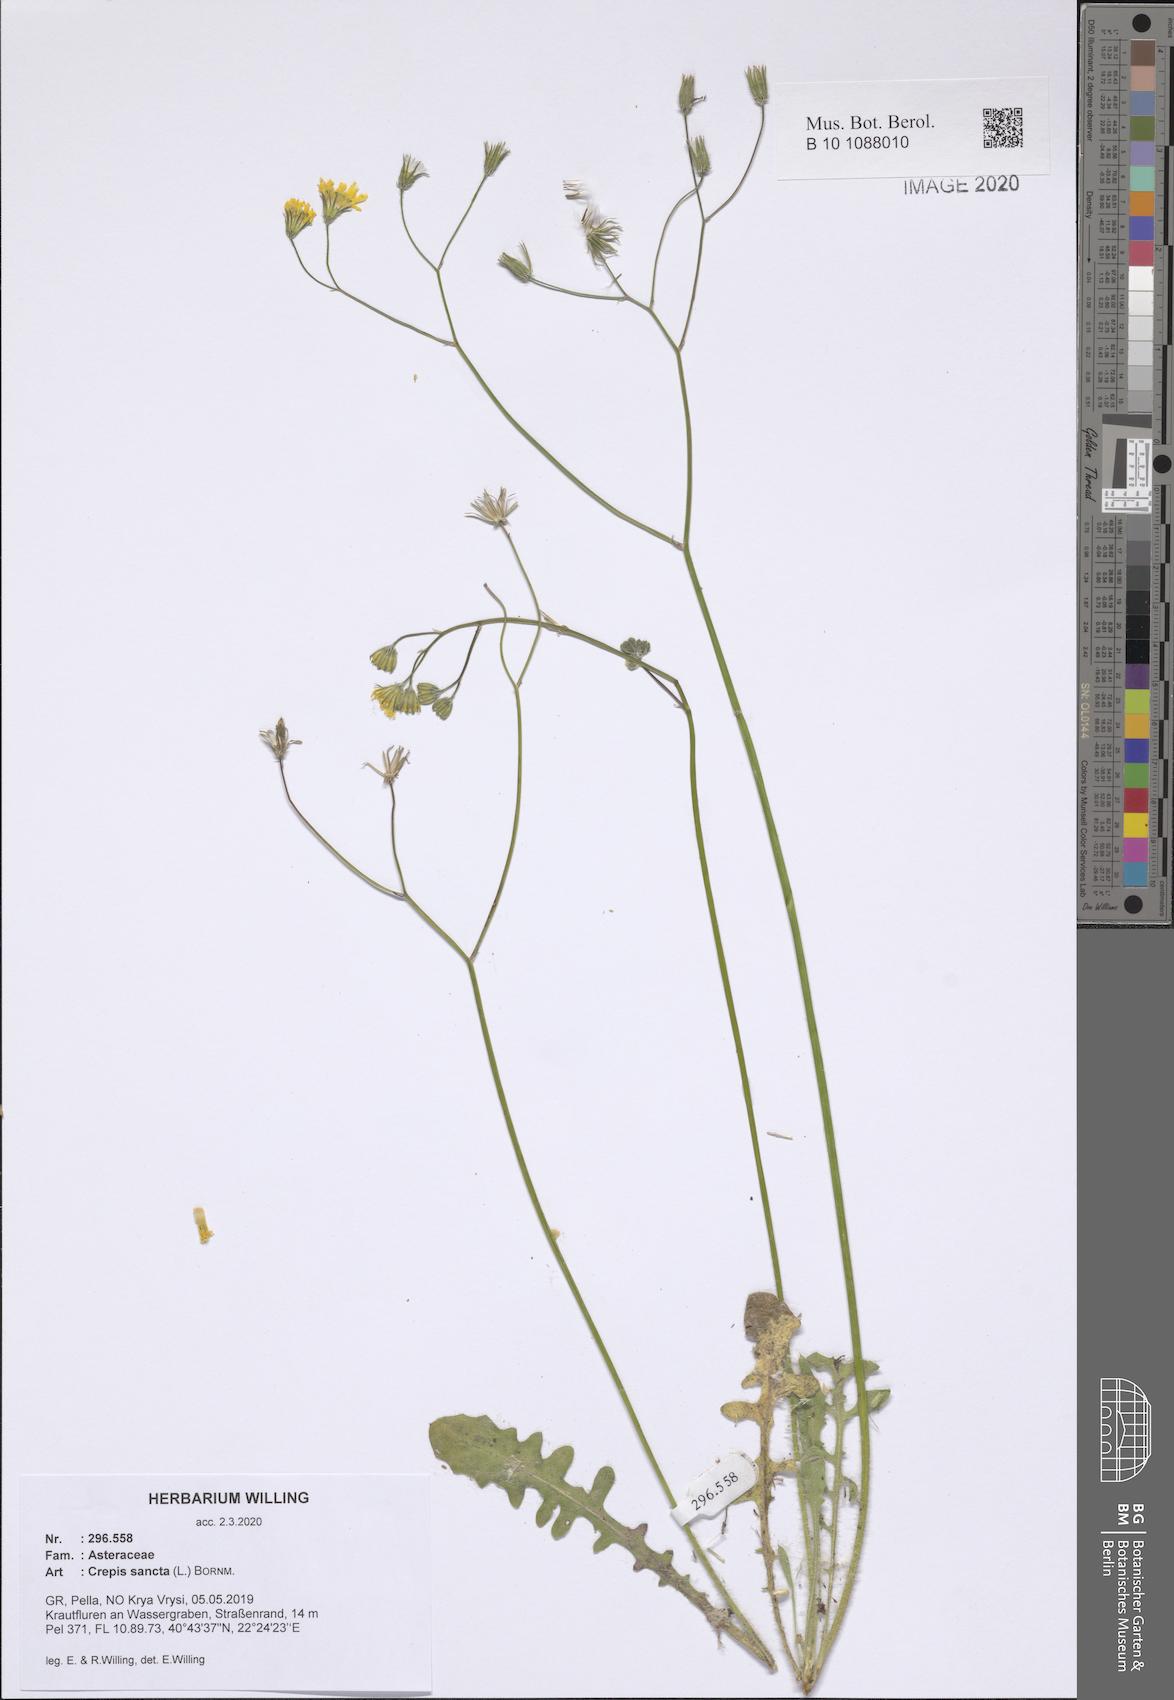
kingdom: Plantae
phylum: Tracheophyta
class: Magnoliopsida
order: Asterales
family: Asteraceae
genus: Crepis
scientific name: Crepis sancta
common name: Hawk's-beard
